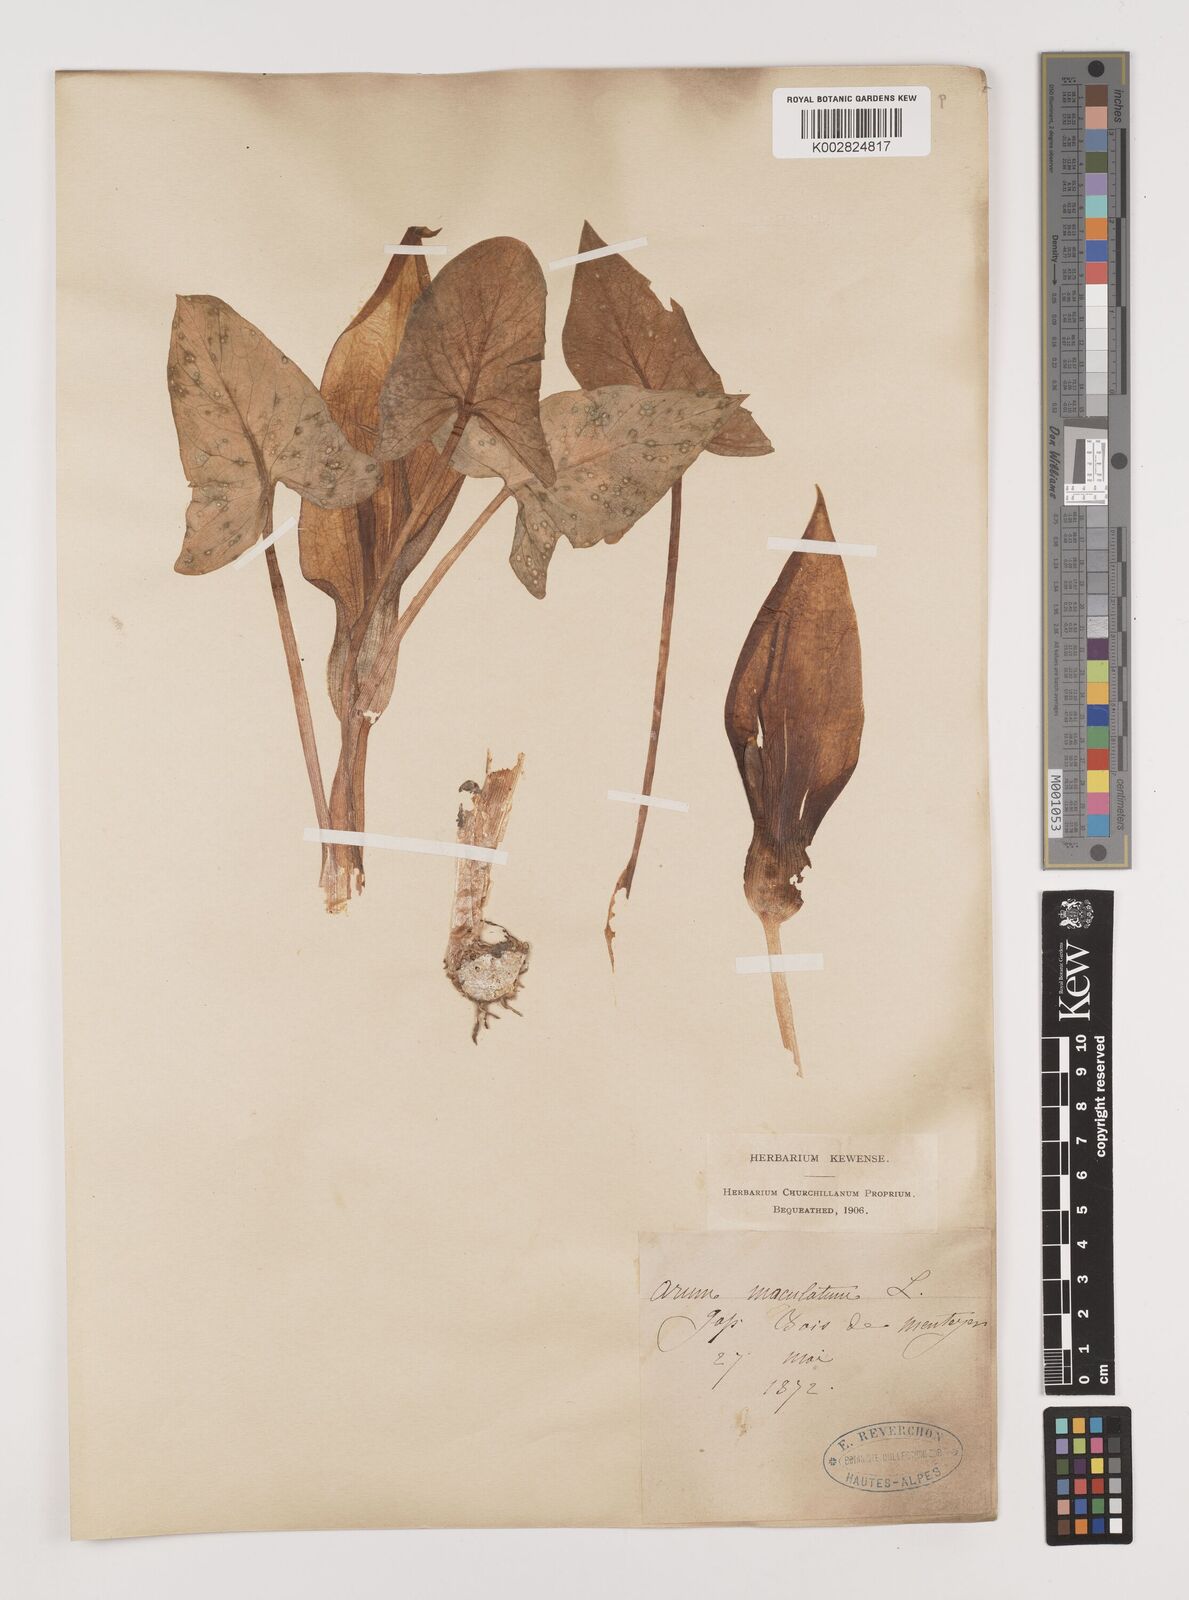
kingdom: Plantae
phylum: Tracheophyta
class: Liliopsida
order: Alismatales
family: Araceae
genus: Arum
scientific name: Arum maculatum
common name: Lords-and-ladies
